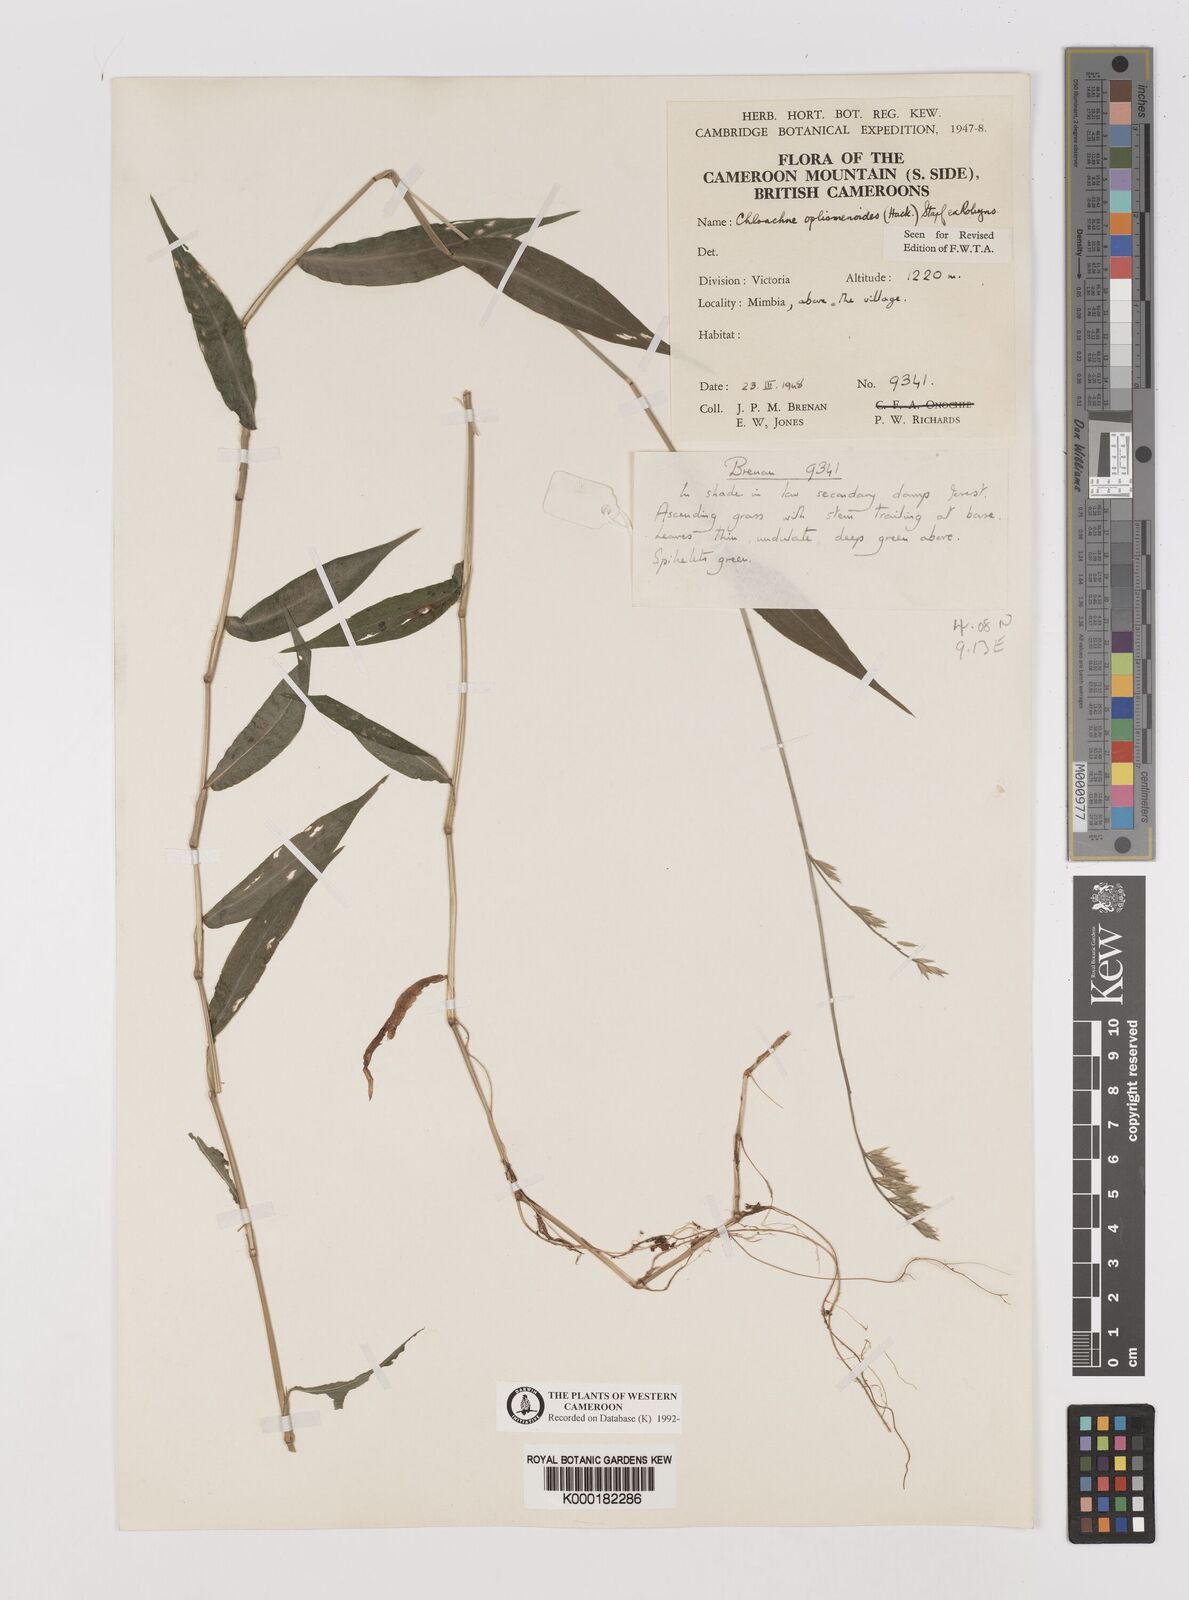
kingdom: Plantae
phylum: Tracheophyta
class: Liliopsida
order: Poales
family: Poaceae
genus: Poecilostachys
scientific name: Poecilostachys oplismenoides
